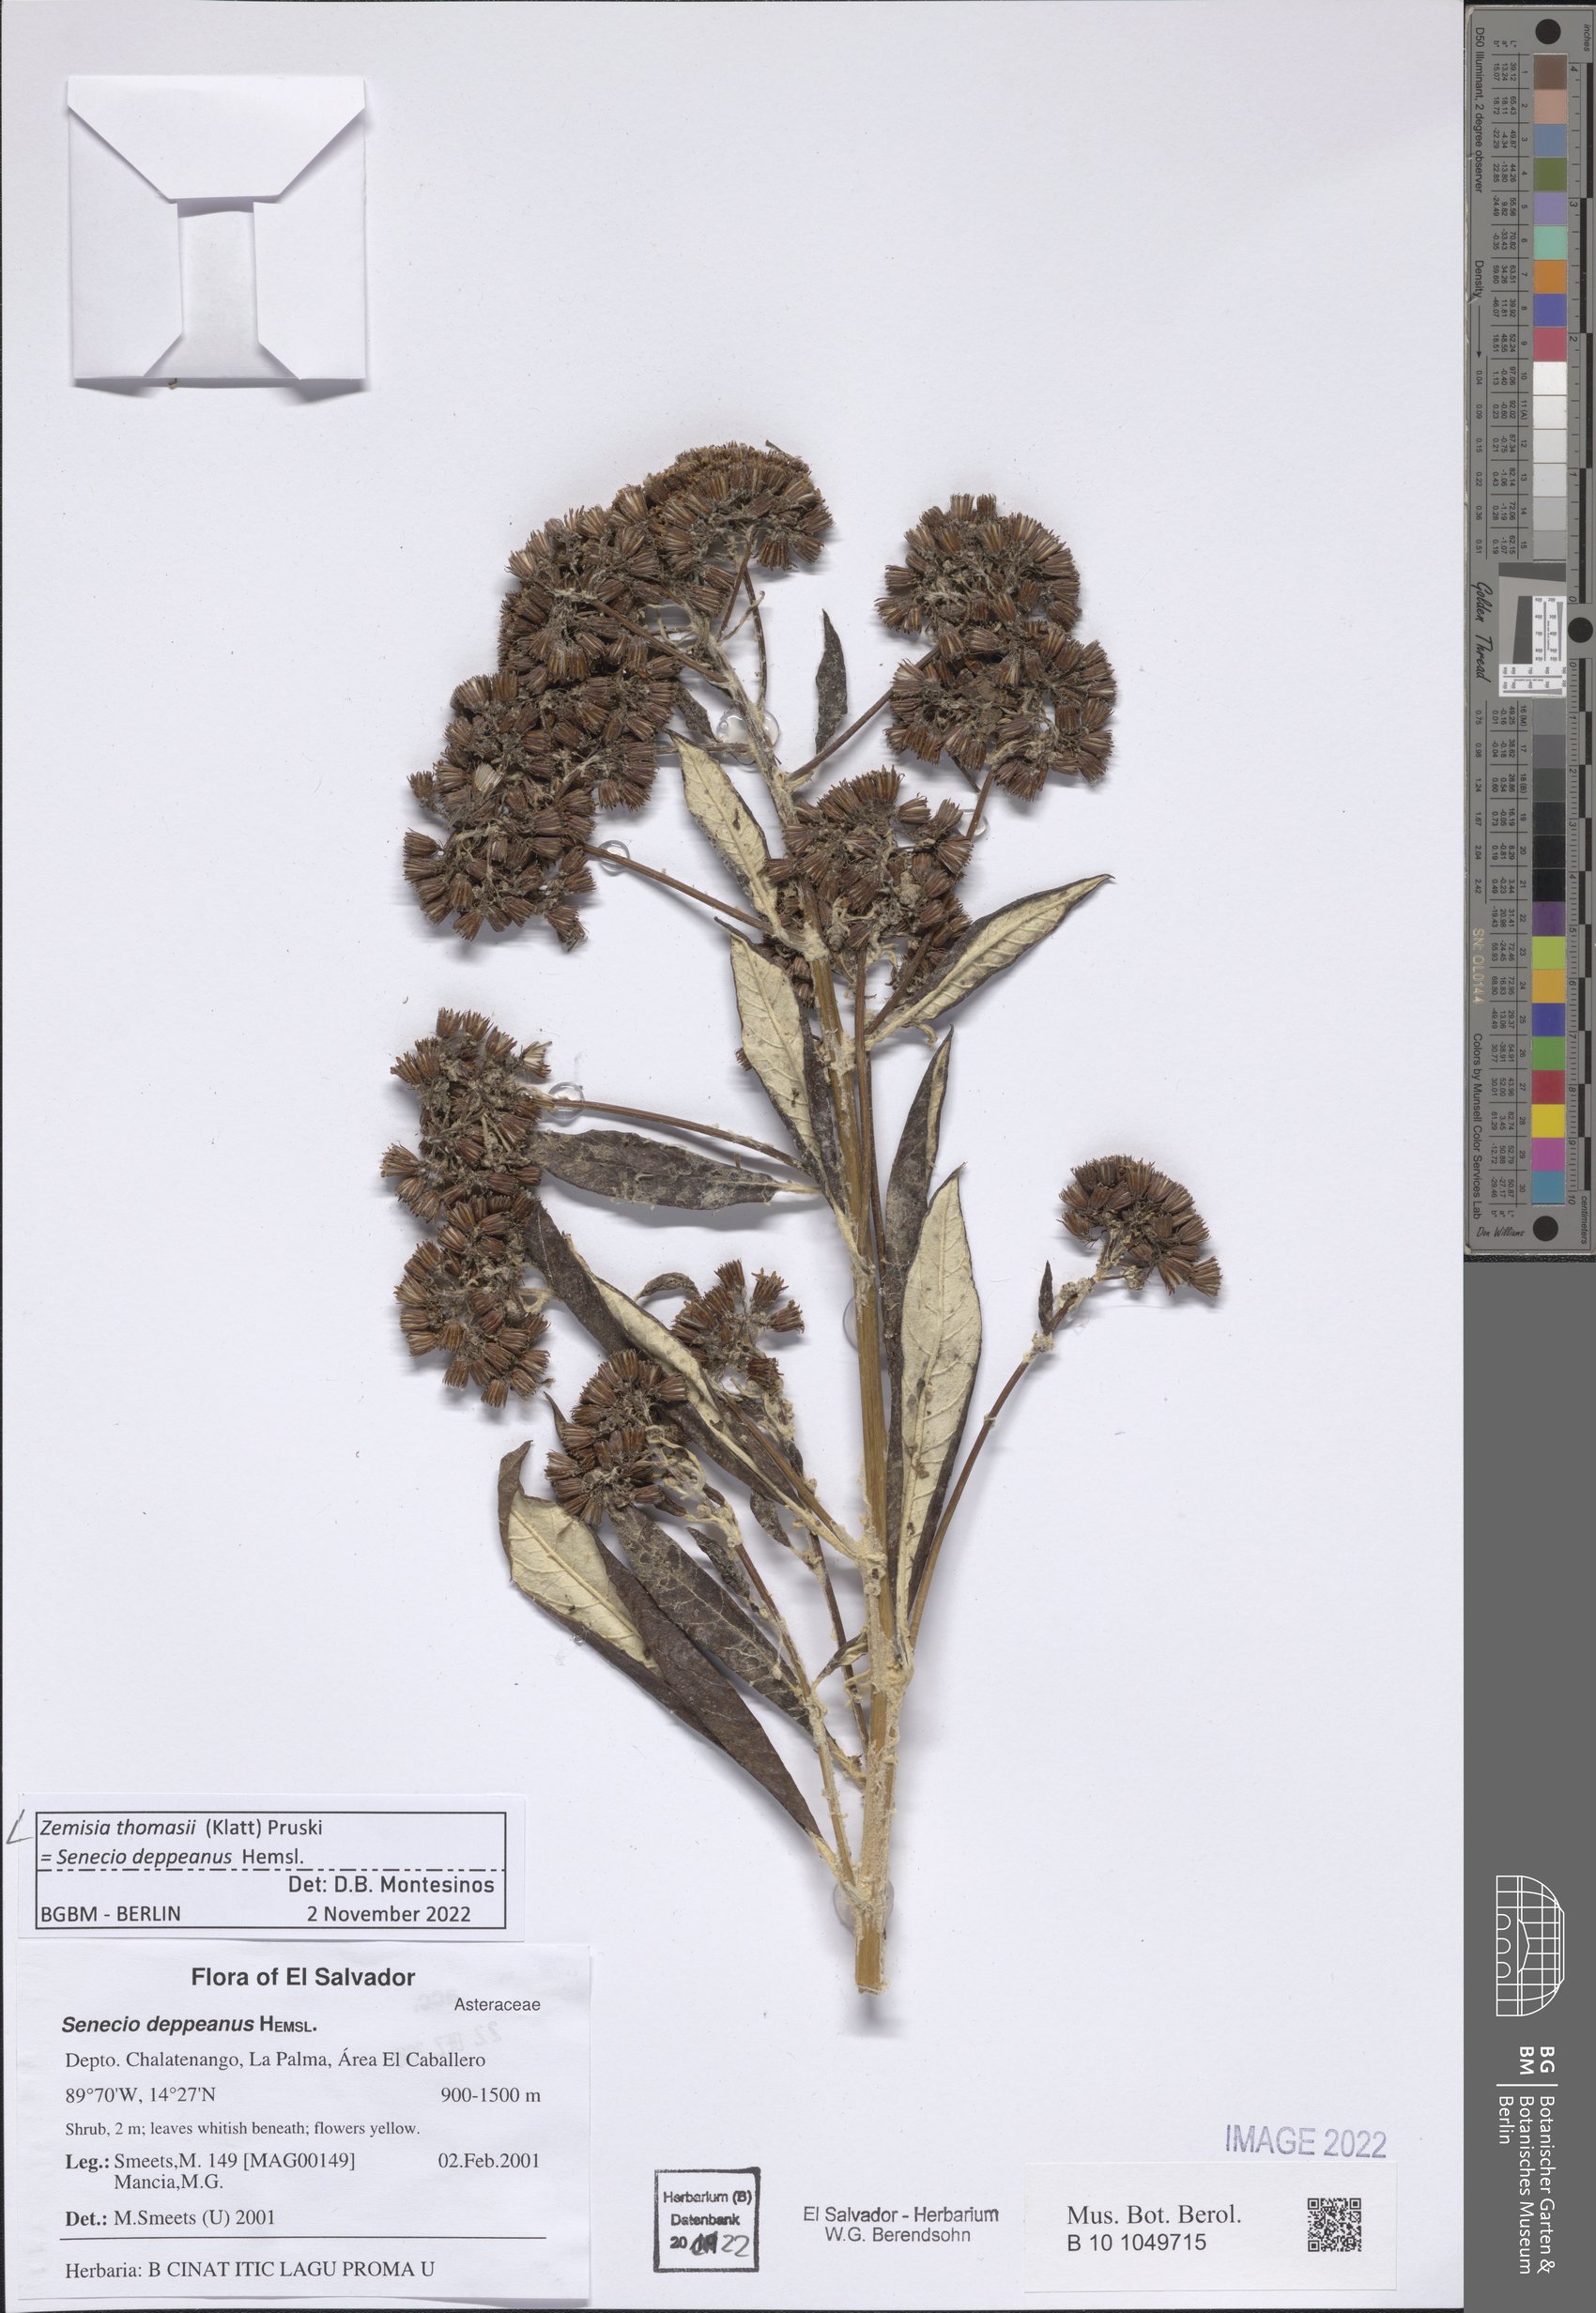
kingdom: Plantae
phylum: Tracheophyta
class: Magnoliopsida
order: Asterales
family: Asteraceae
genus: Zemisia
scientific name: Zemisia thomasii
